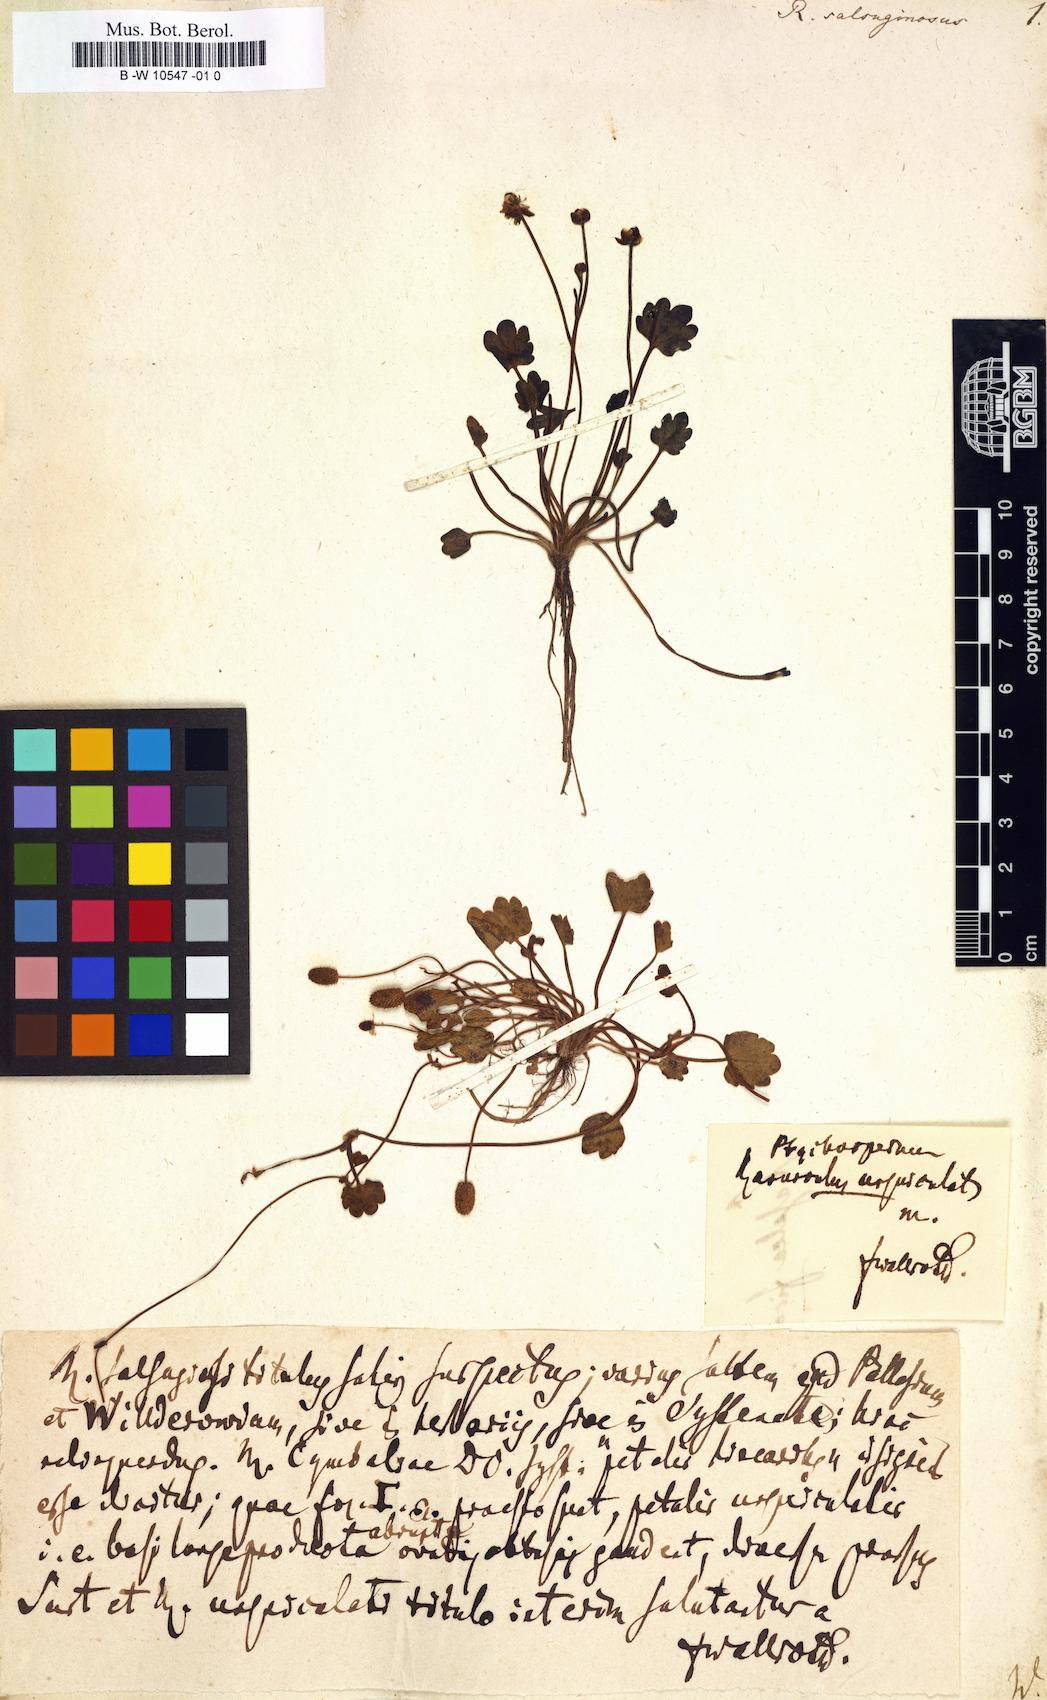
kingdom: Plantae
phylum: Tracheophyta
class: Magnoliopsida
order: Ranunculales
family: Ranunculaceae
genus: Halerpestes
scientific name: Halerpestes ruthenica
